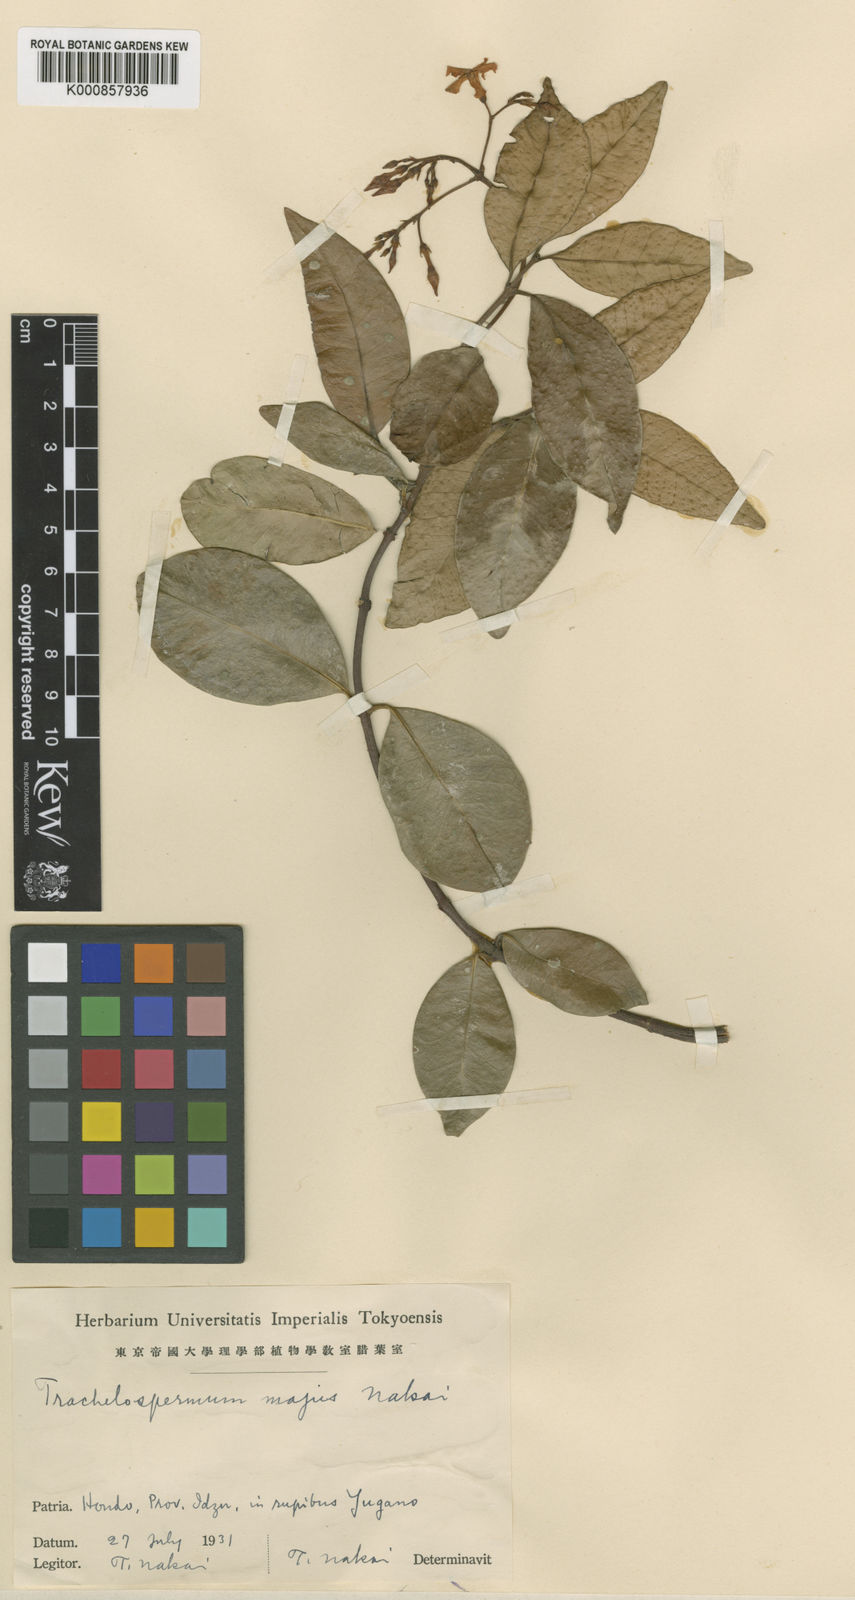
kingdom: Plantae
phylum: Tracheophyta
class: Magnoliopsida
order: Gentianales
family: Apocynaceae
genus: Trachelospermum
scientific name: Trachelospermum jasminoides
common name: Confederate jasmine
